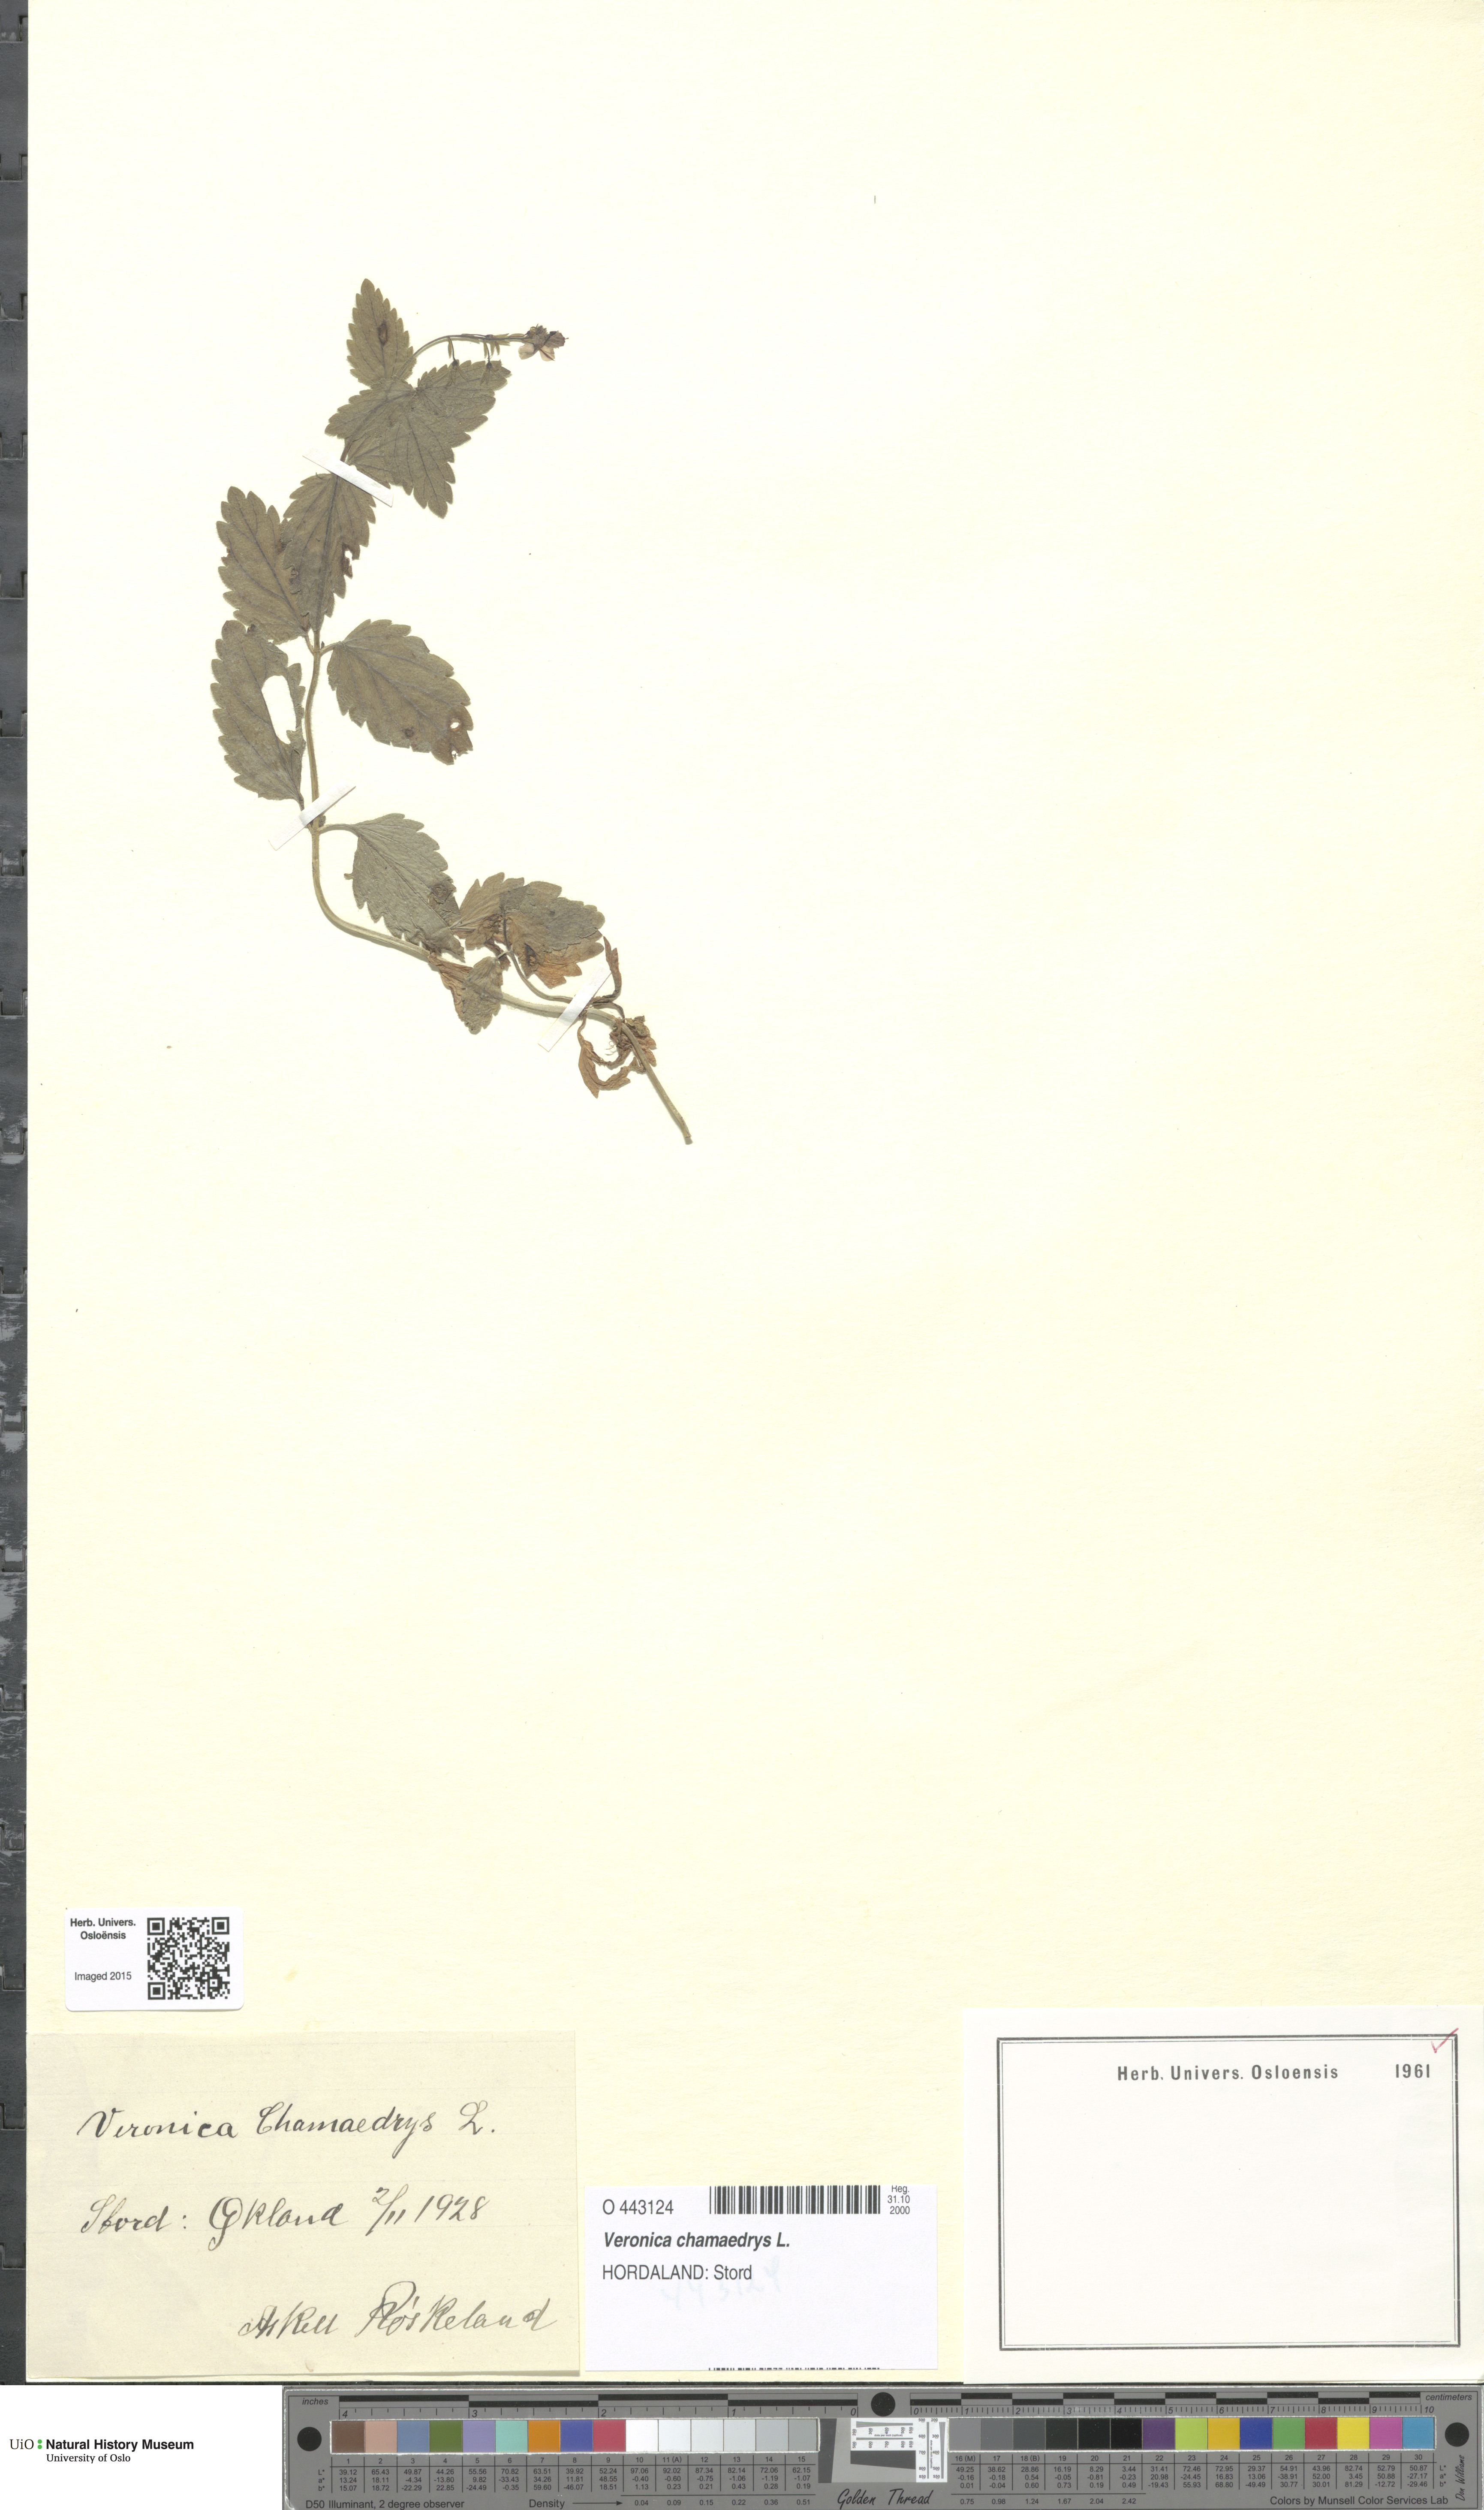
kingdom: Plantae
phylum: Tracheophyta
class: Magnoliopsida
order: Lamiales
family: Plantaginaceae
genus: Veronica
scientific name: Veronica chamaedrys
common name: Germander speedwell
